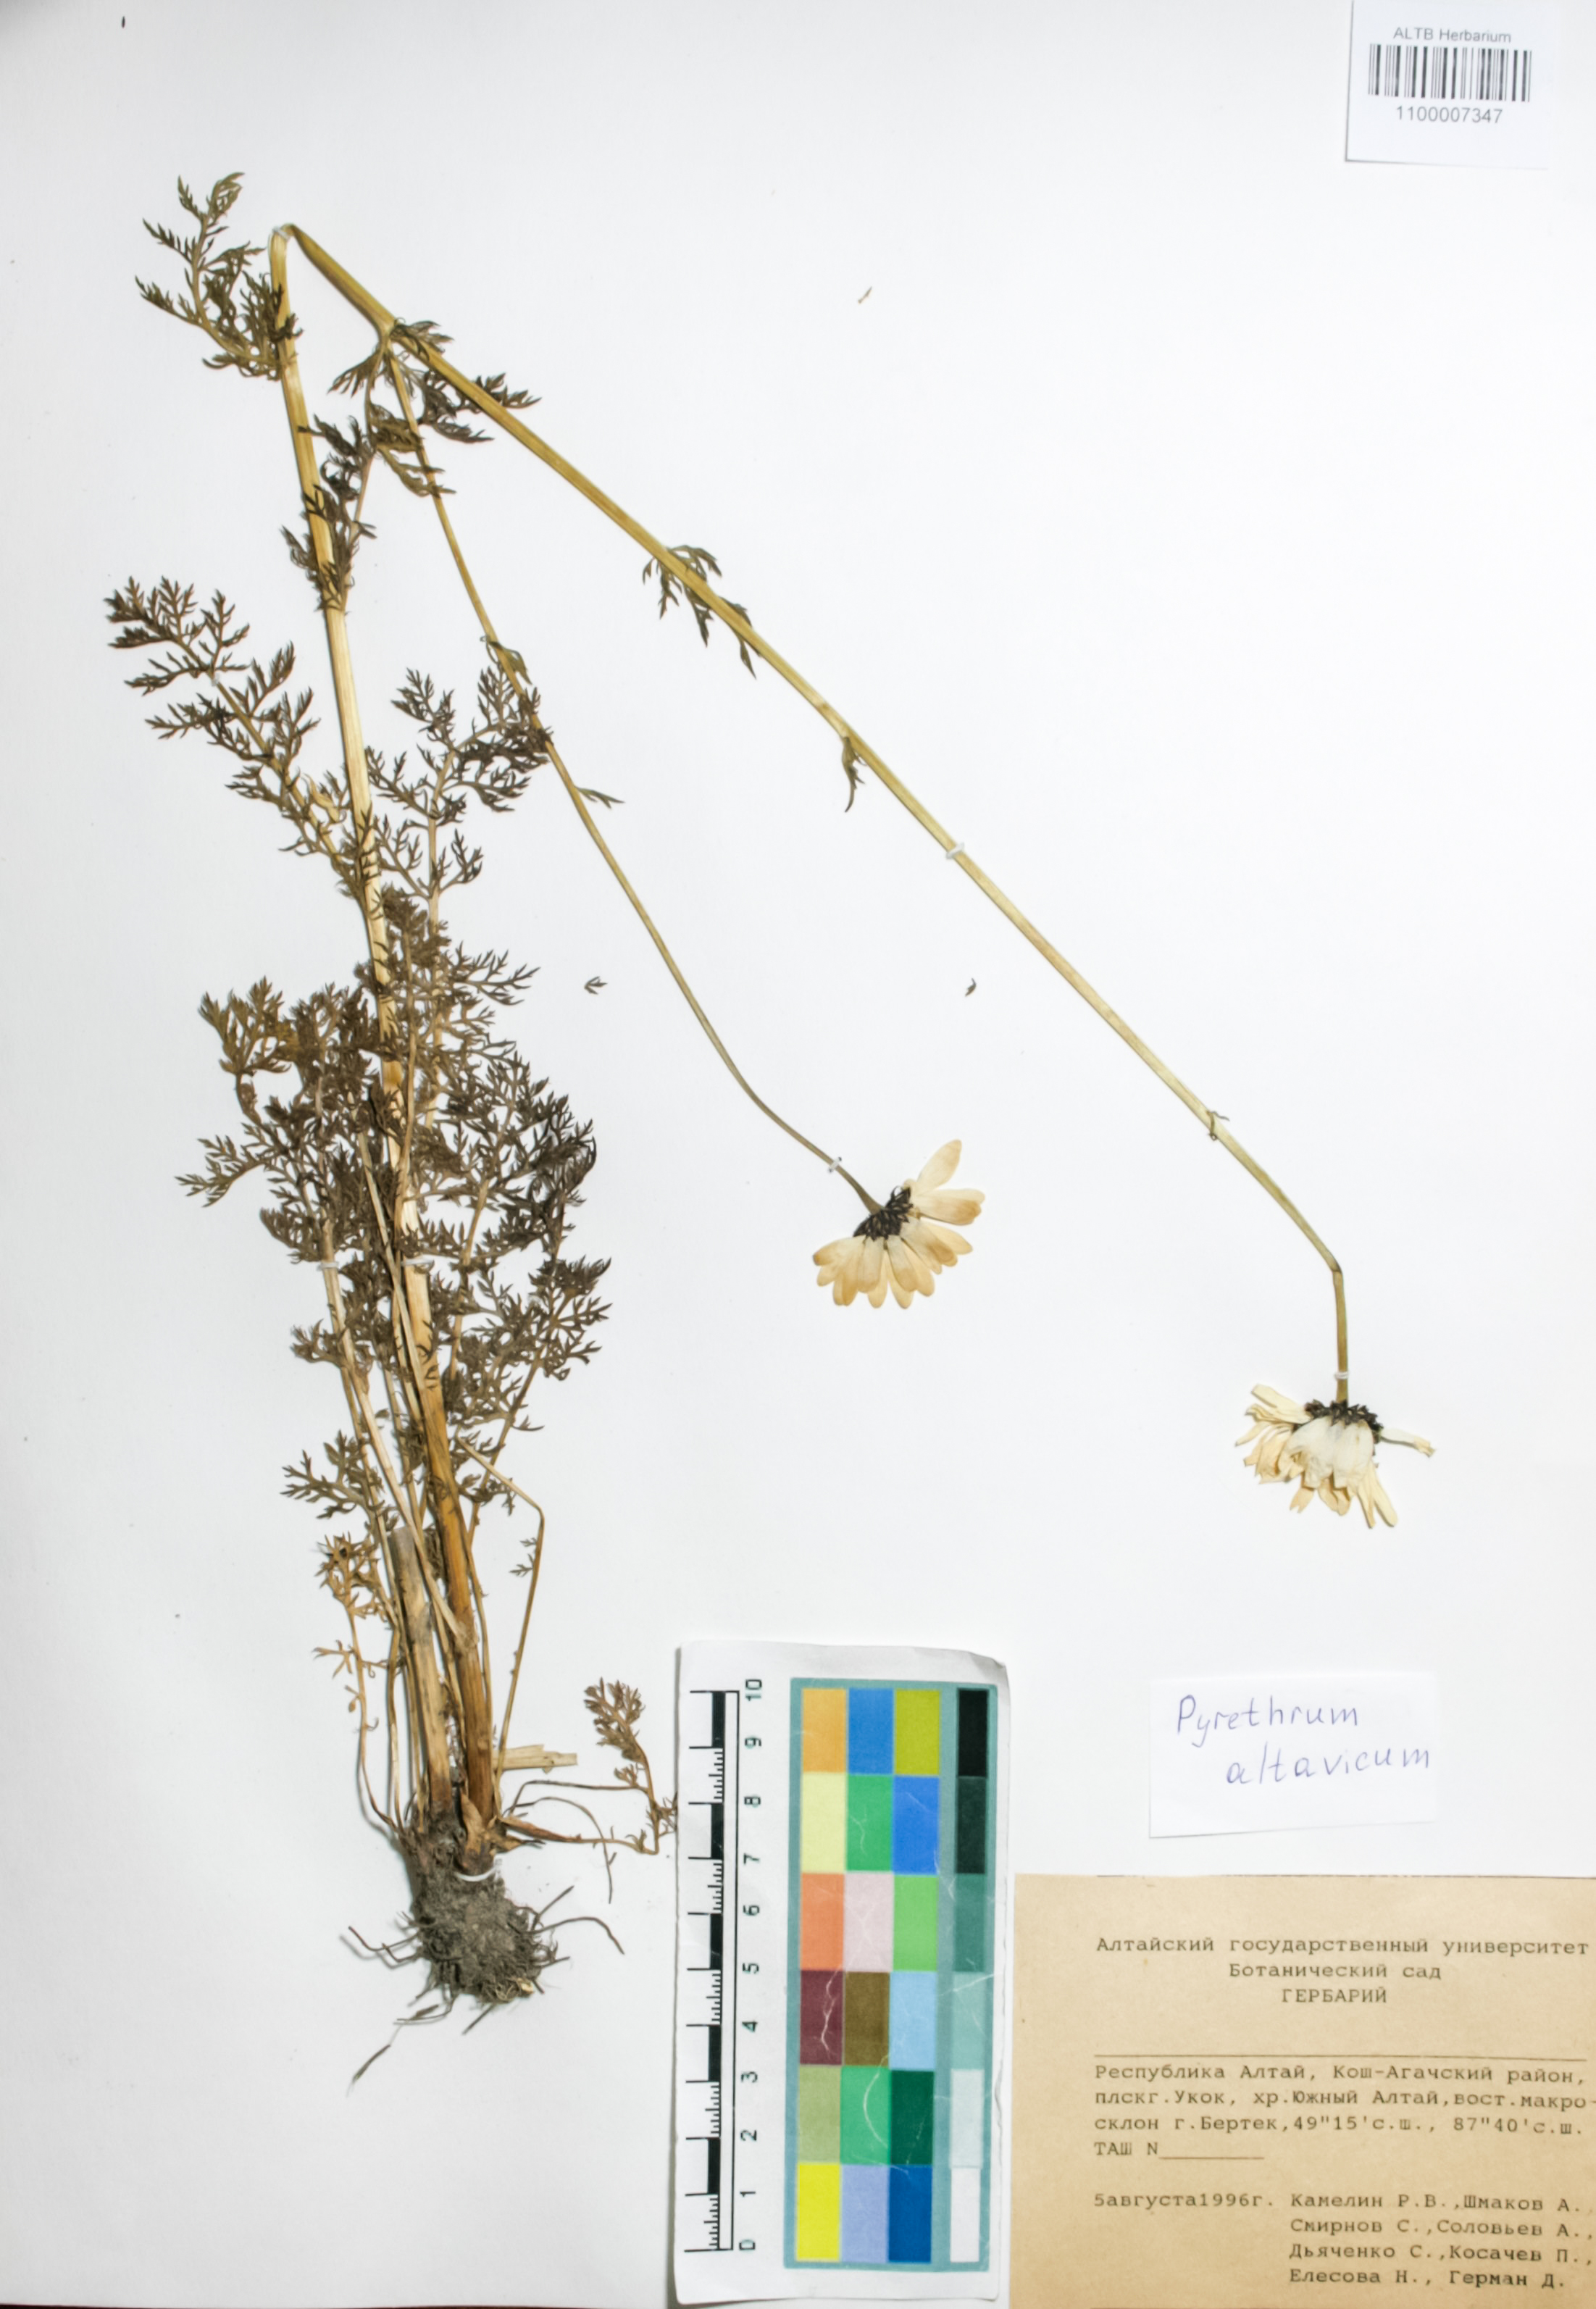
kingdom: Plantae
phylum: Tracheophyta
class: Magnoliopsida
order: Asterales
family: Asteraceae
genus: Tanacetum
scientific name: Tanacetum alatavicum
